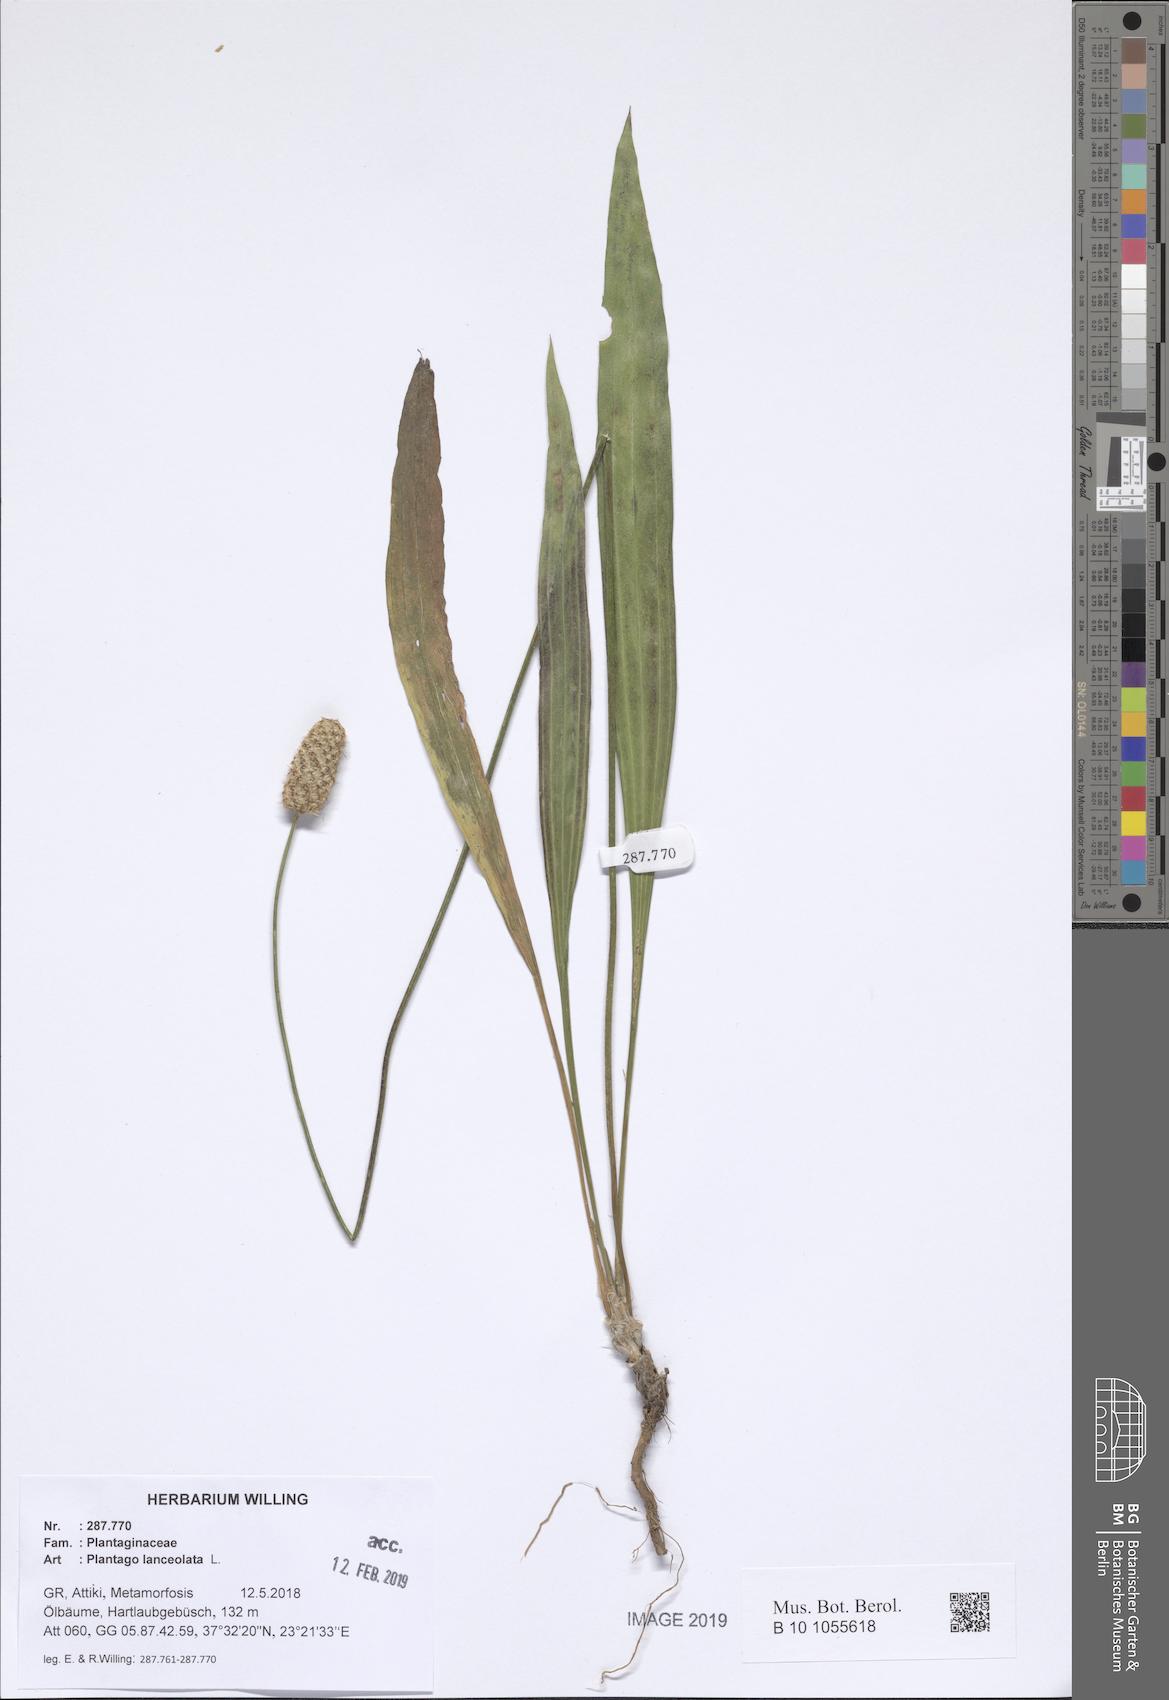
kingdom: Plantae
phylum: Tracheophyta
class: Magnoliopsida
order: Lamiales
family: Plantaginaceae
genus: Plantago
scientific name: Plantago lanceolata
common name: Ribwort plantain
